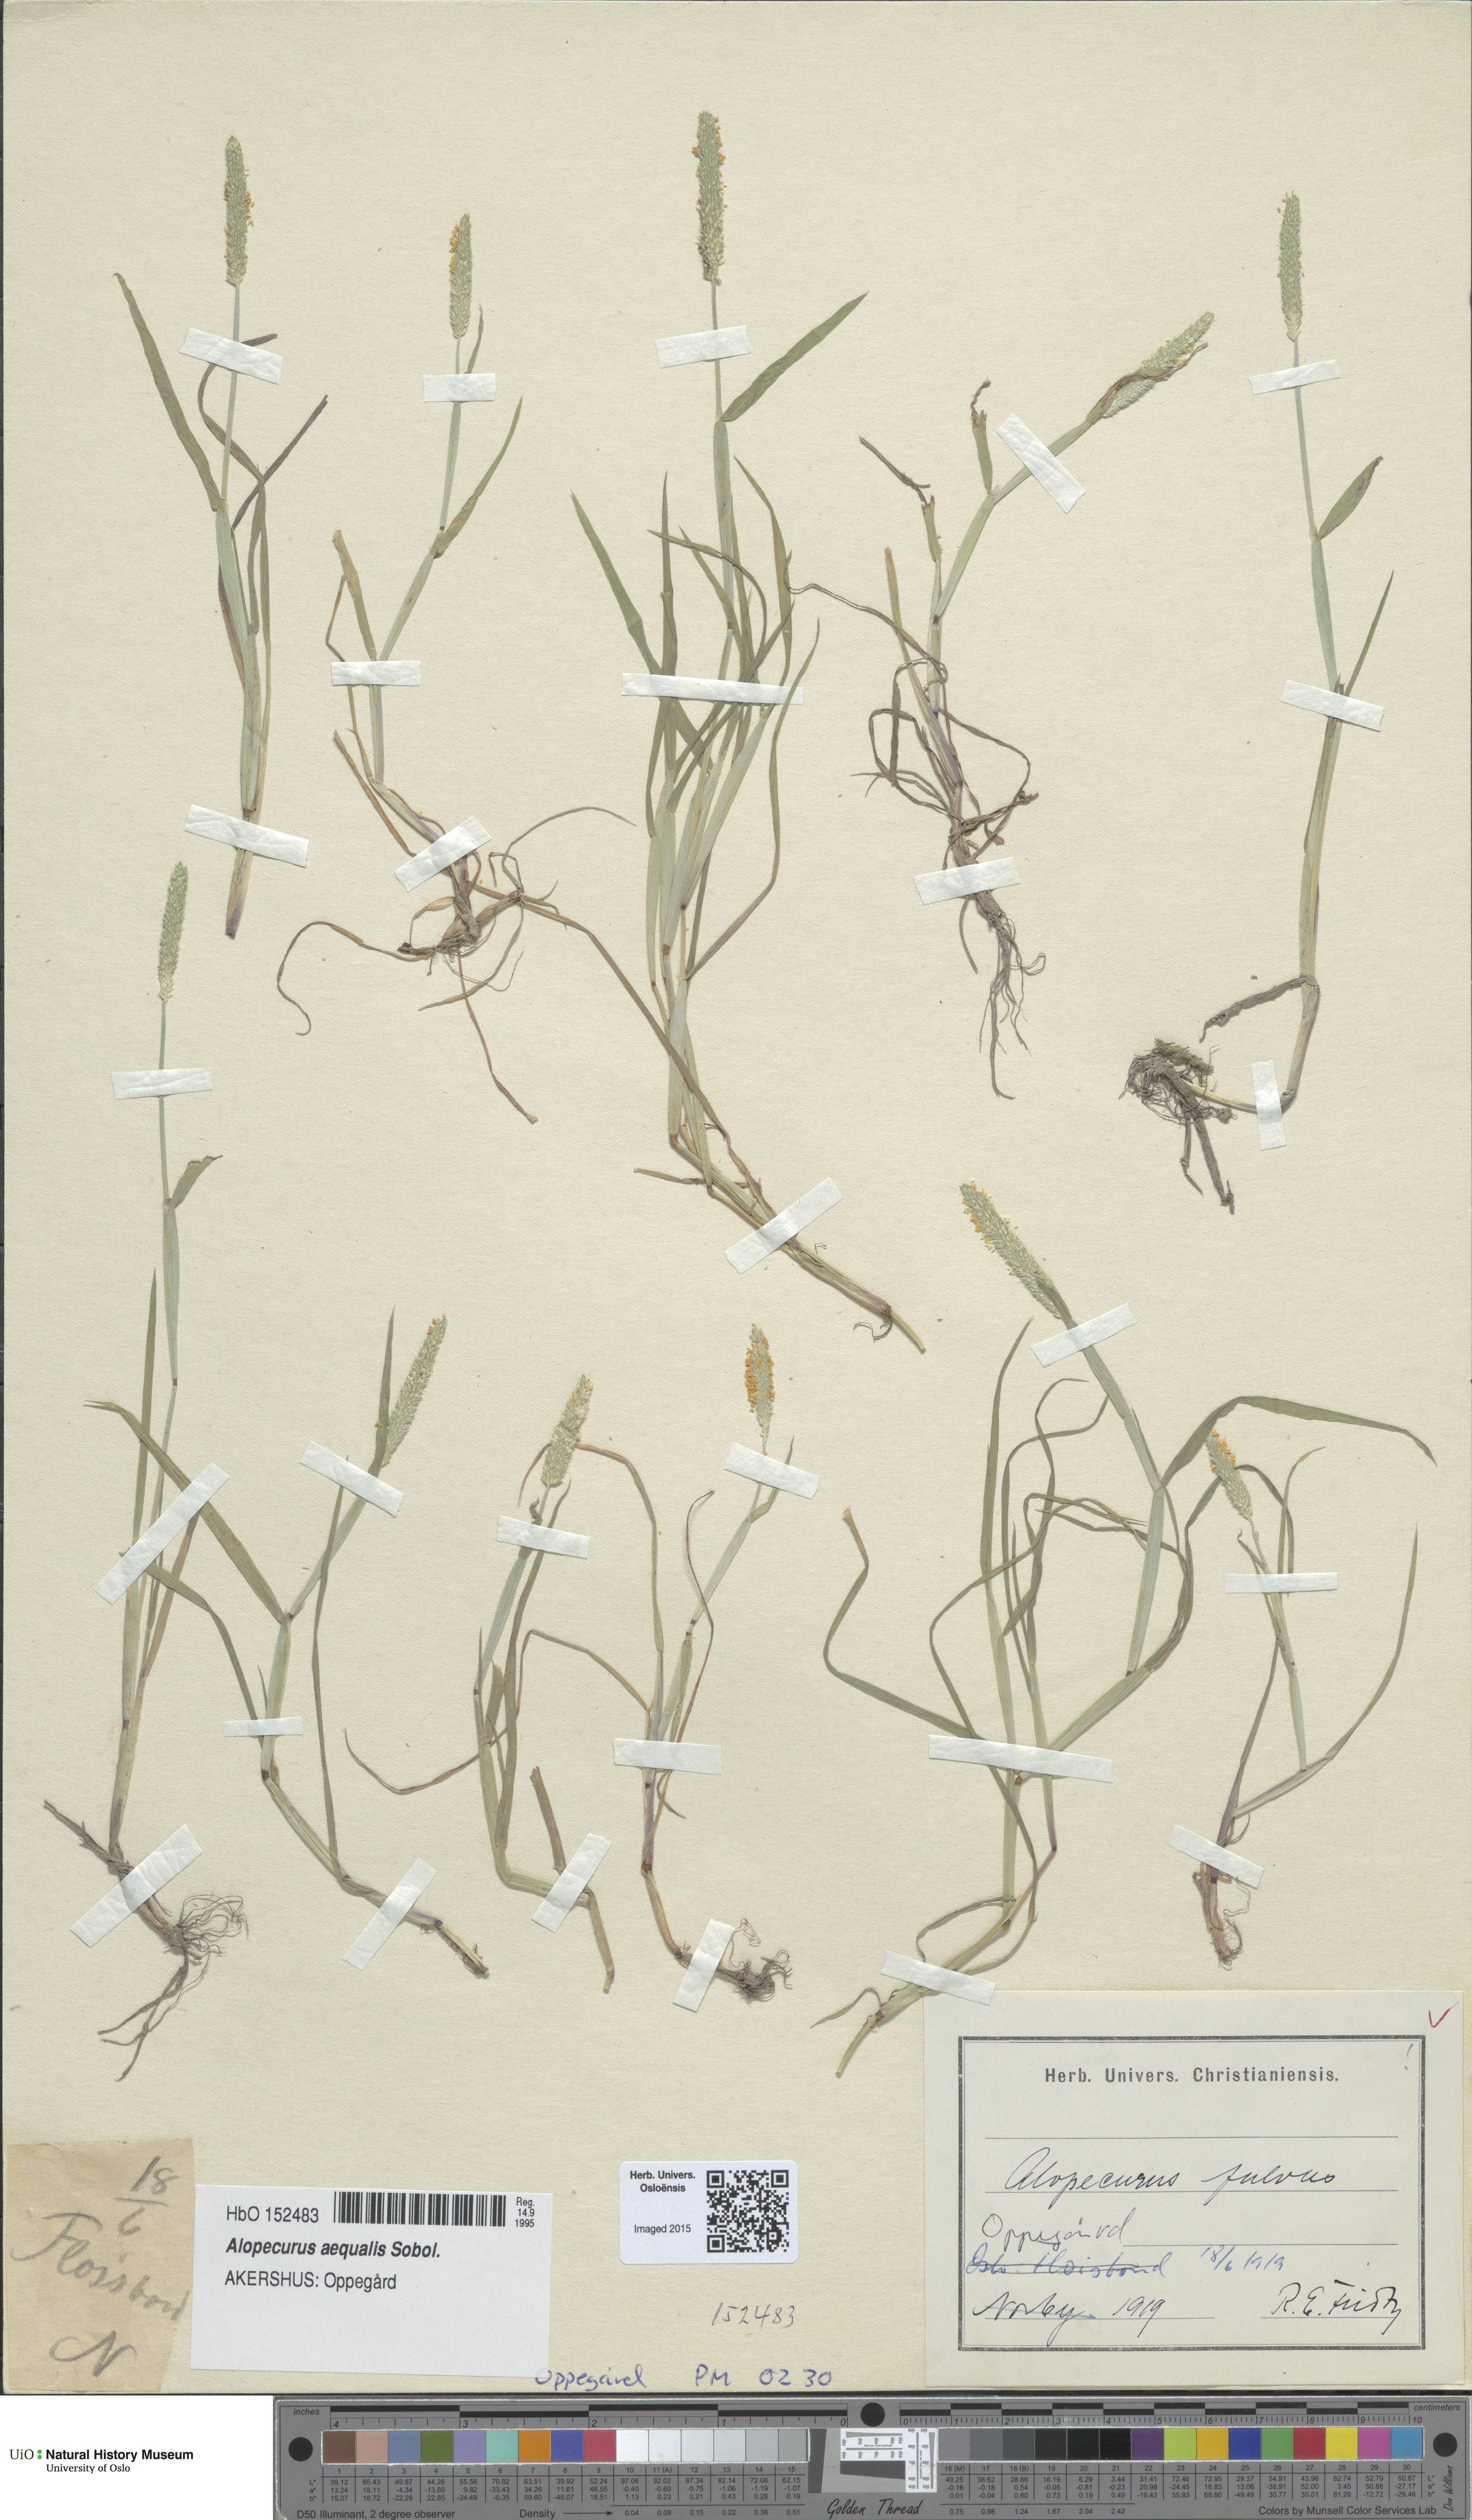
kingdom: Plantae
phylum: Tracheophyta
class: Liliopsida
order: Poales
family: Poaceae
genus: Alopecurus
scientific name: Alopecurus aequalis
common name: Orange foxtail
